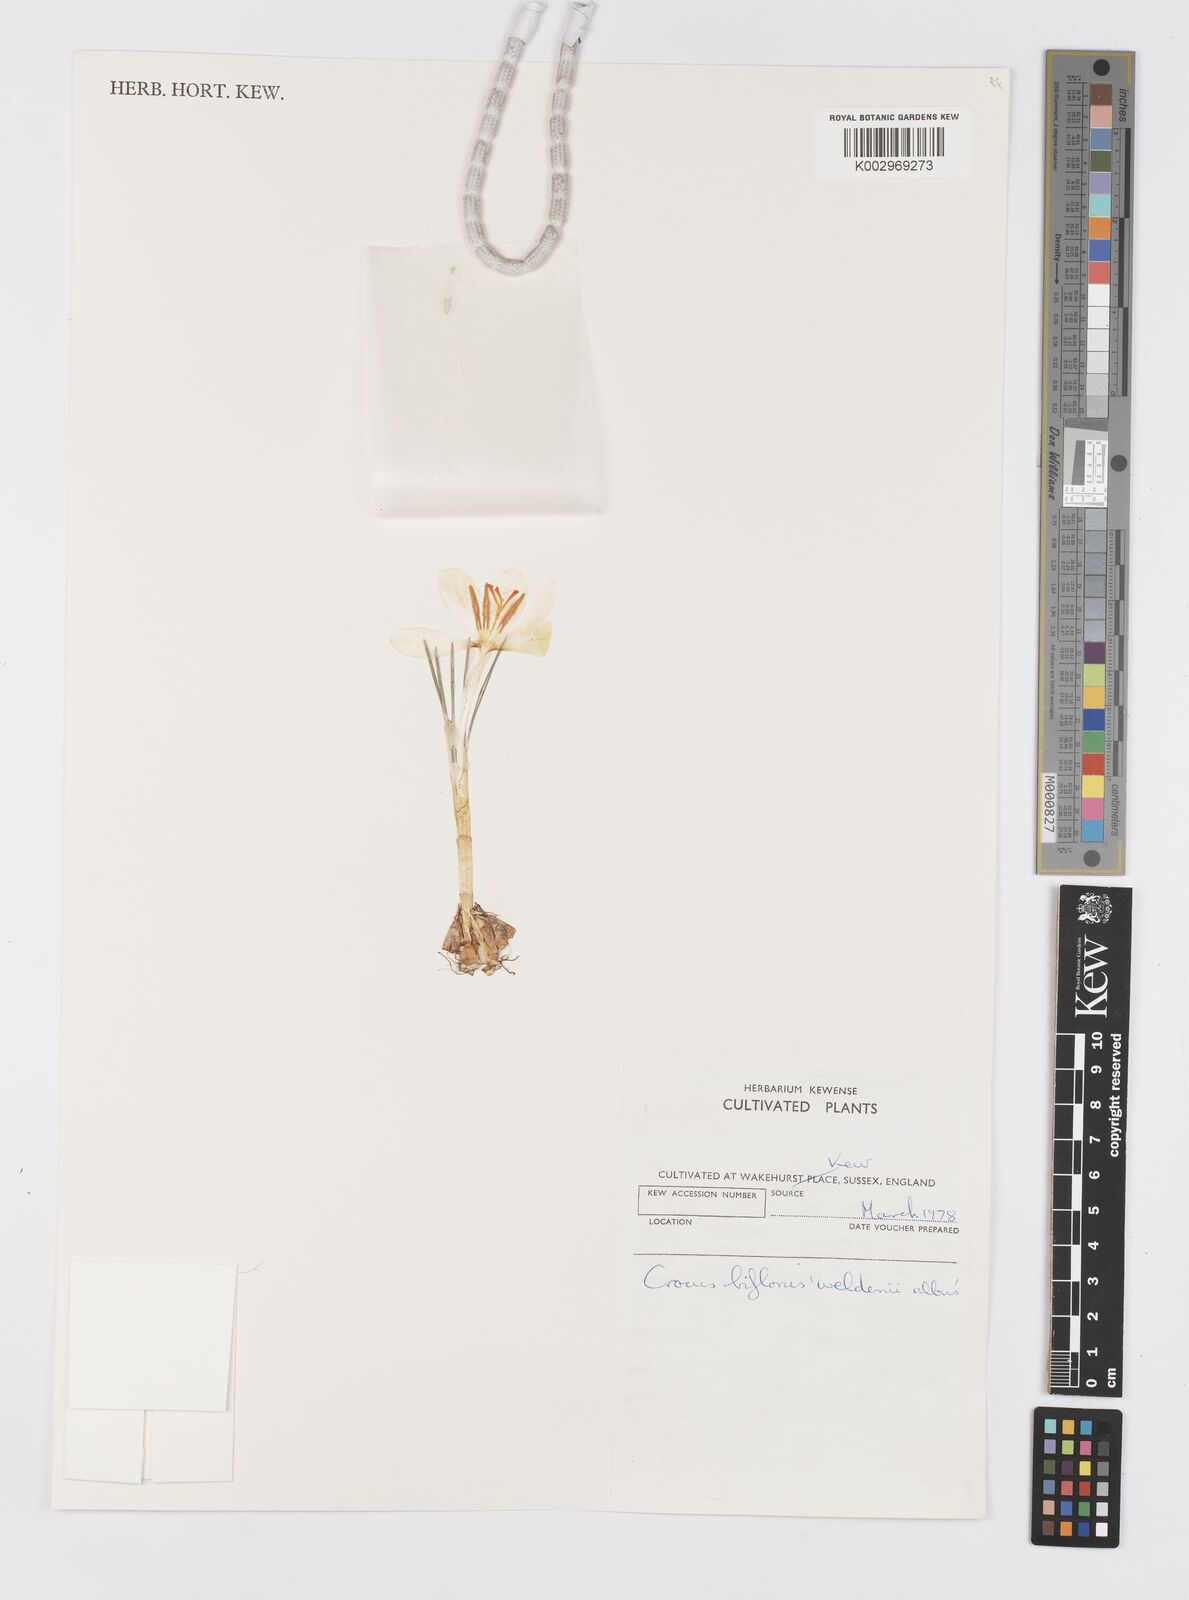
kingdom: Plantae
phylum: Tracheophyta
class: Liliopsida
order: Asparagales
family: Iridaceae
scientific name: Iridaceae
